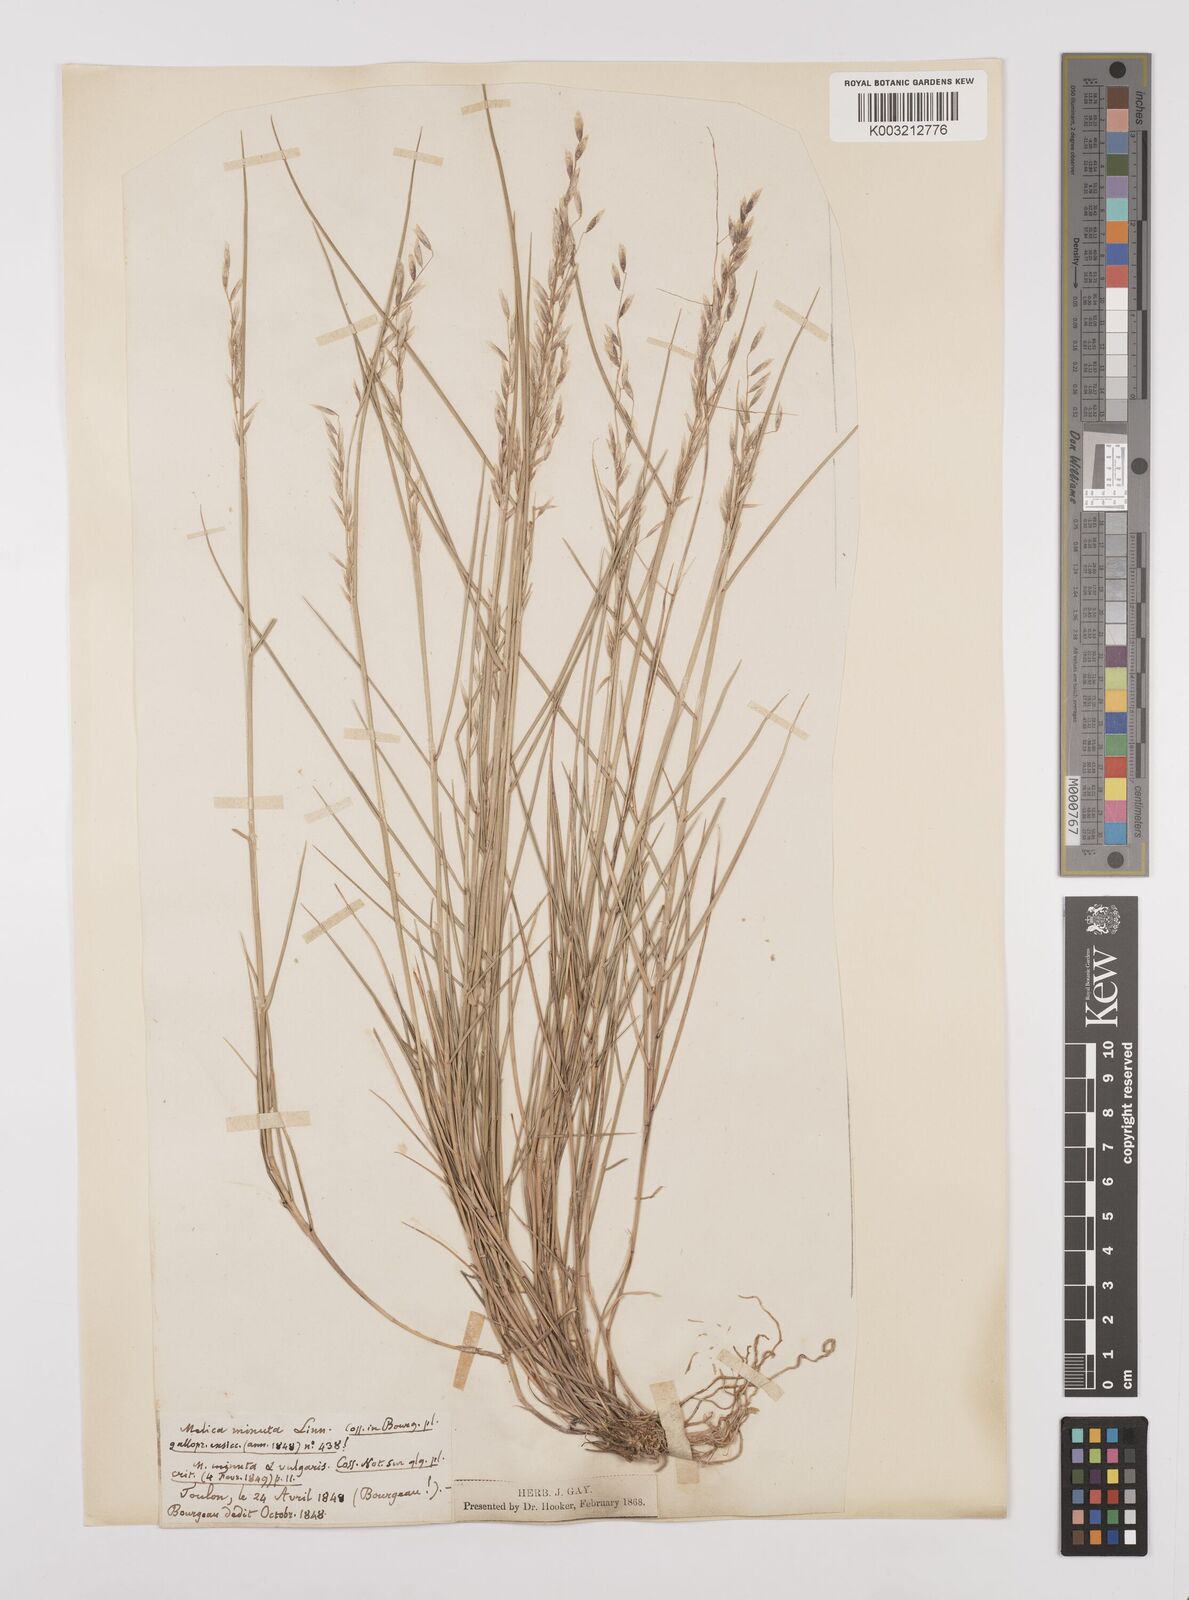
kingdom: Plantae
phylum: Tracheophyta
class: Liliopsida
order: Poales
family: Poaceae
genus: Melica
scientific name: Melica minuta
